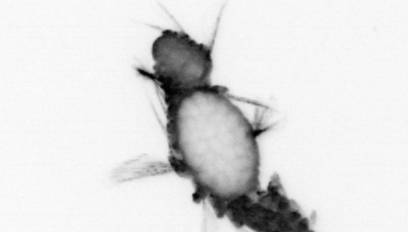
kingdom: Animalia
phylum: Annelida
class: Polychaeta
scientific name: Polychaeta
